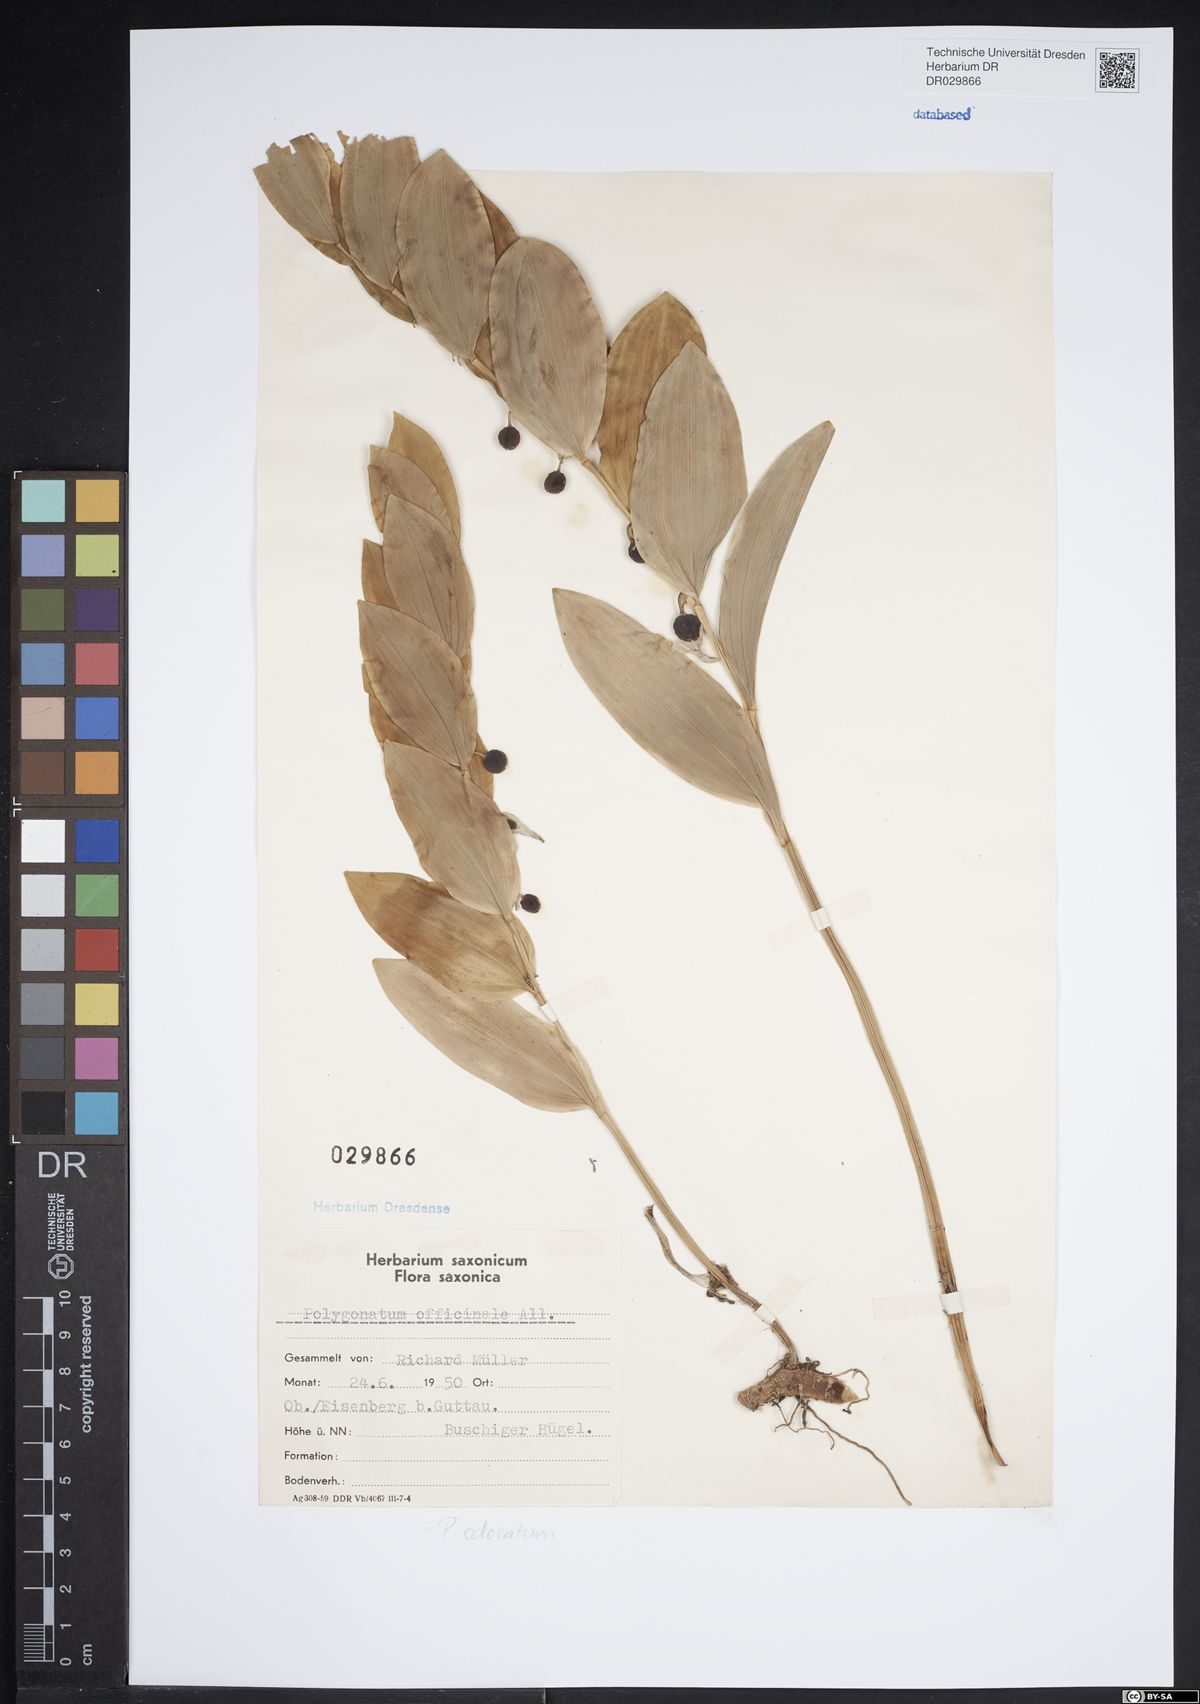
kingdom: Plantae
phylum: Tracheophyta
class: Liliopsida
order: Asparagales
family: Asparagaceae
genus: Polygonatum
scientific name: Polygonatum odoratum
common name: Angular solomon's-seal
